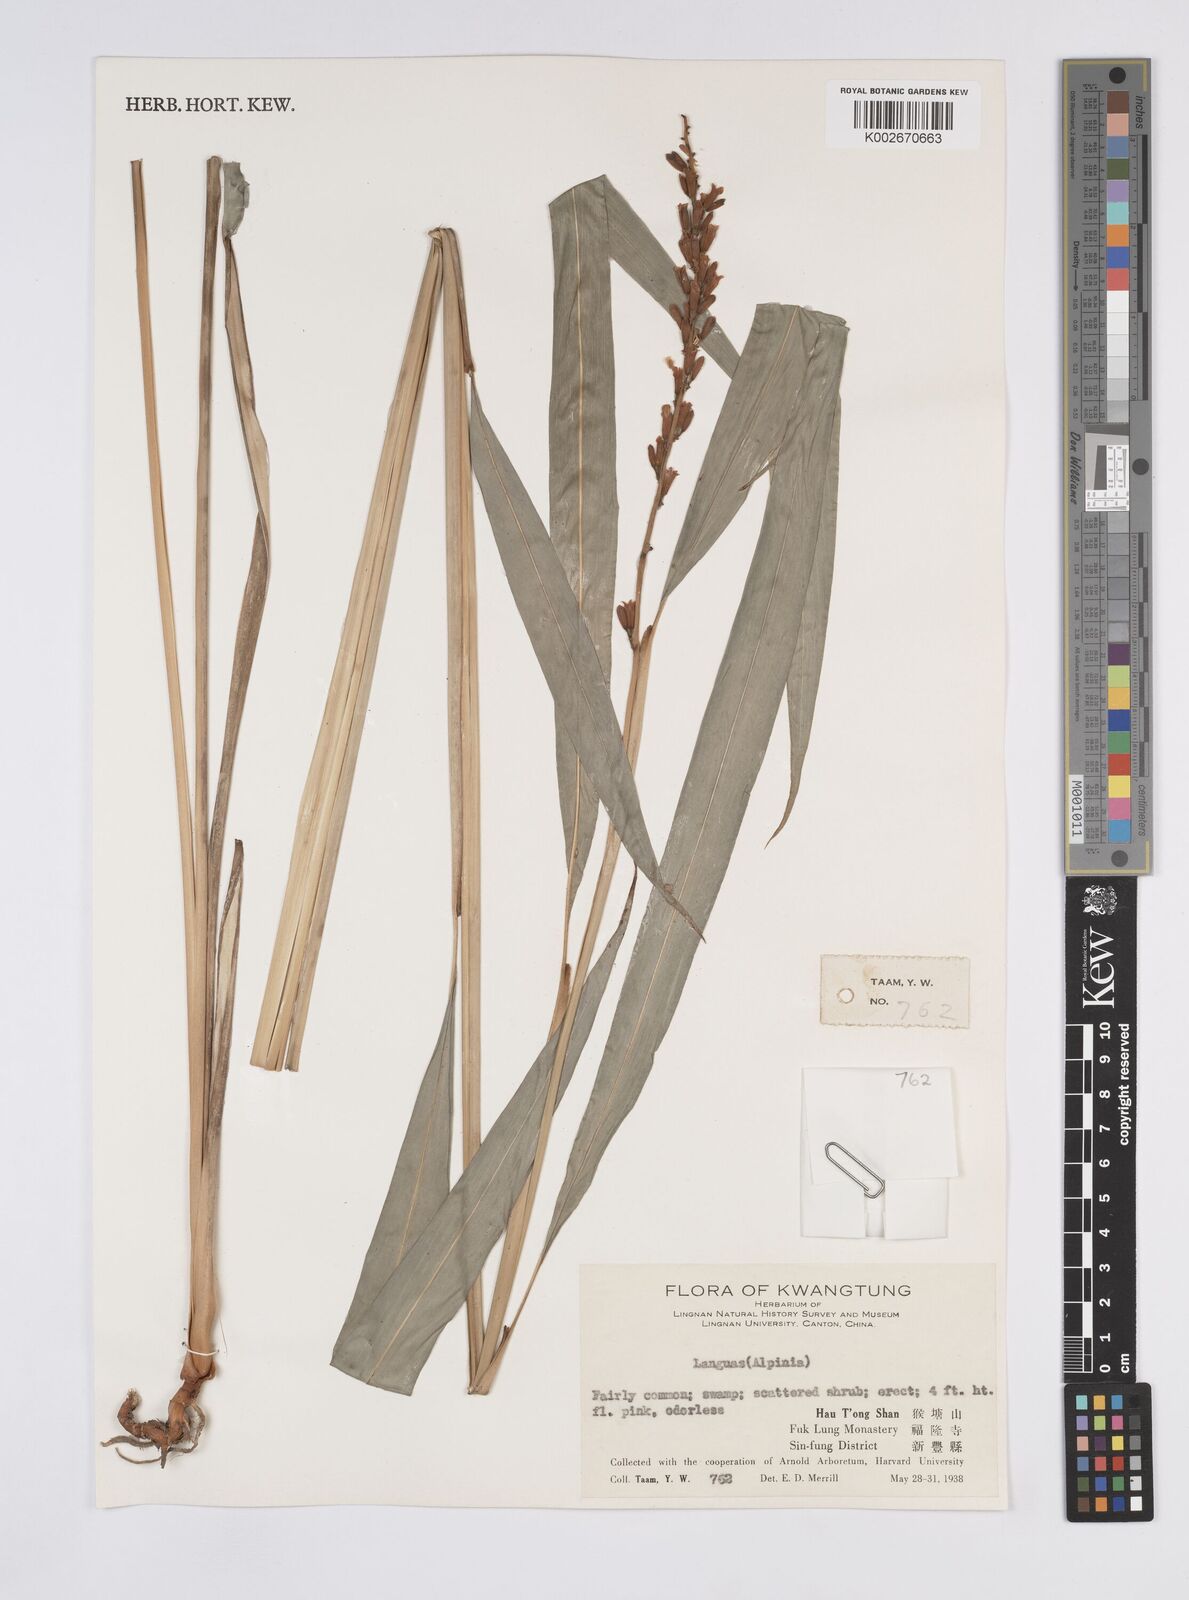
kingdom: Plantae
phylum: Tracheophyta
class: Liliopsida
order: Zingiberales
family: Zingiberaceae
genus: Alpinia
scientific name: Alpinia
